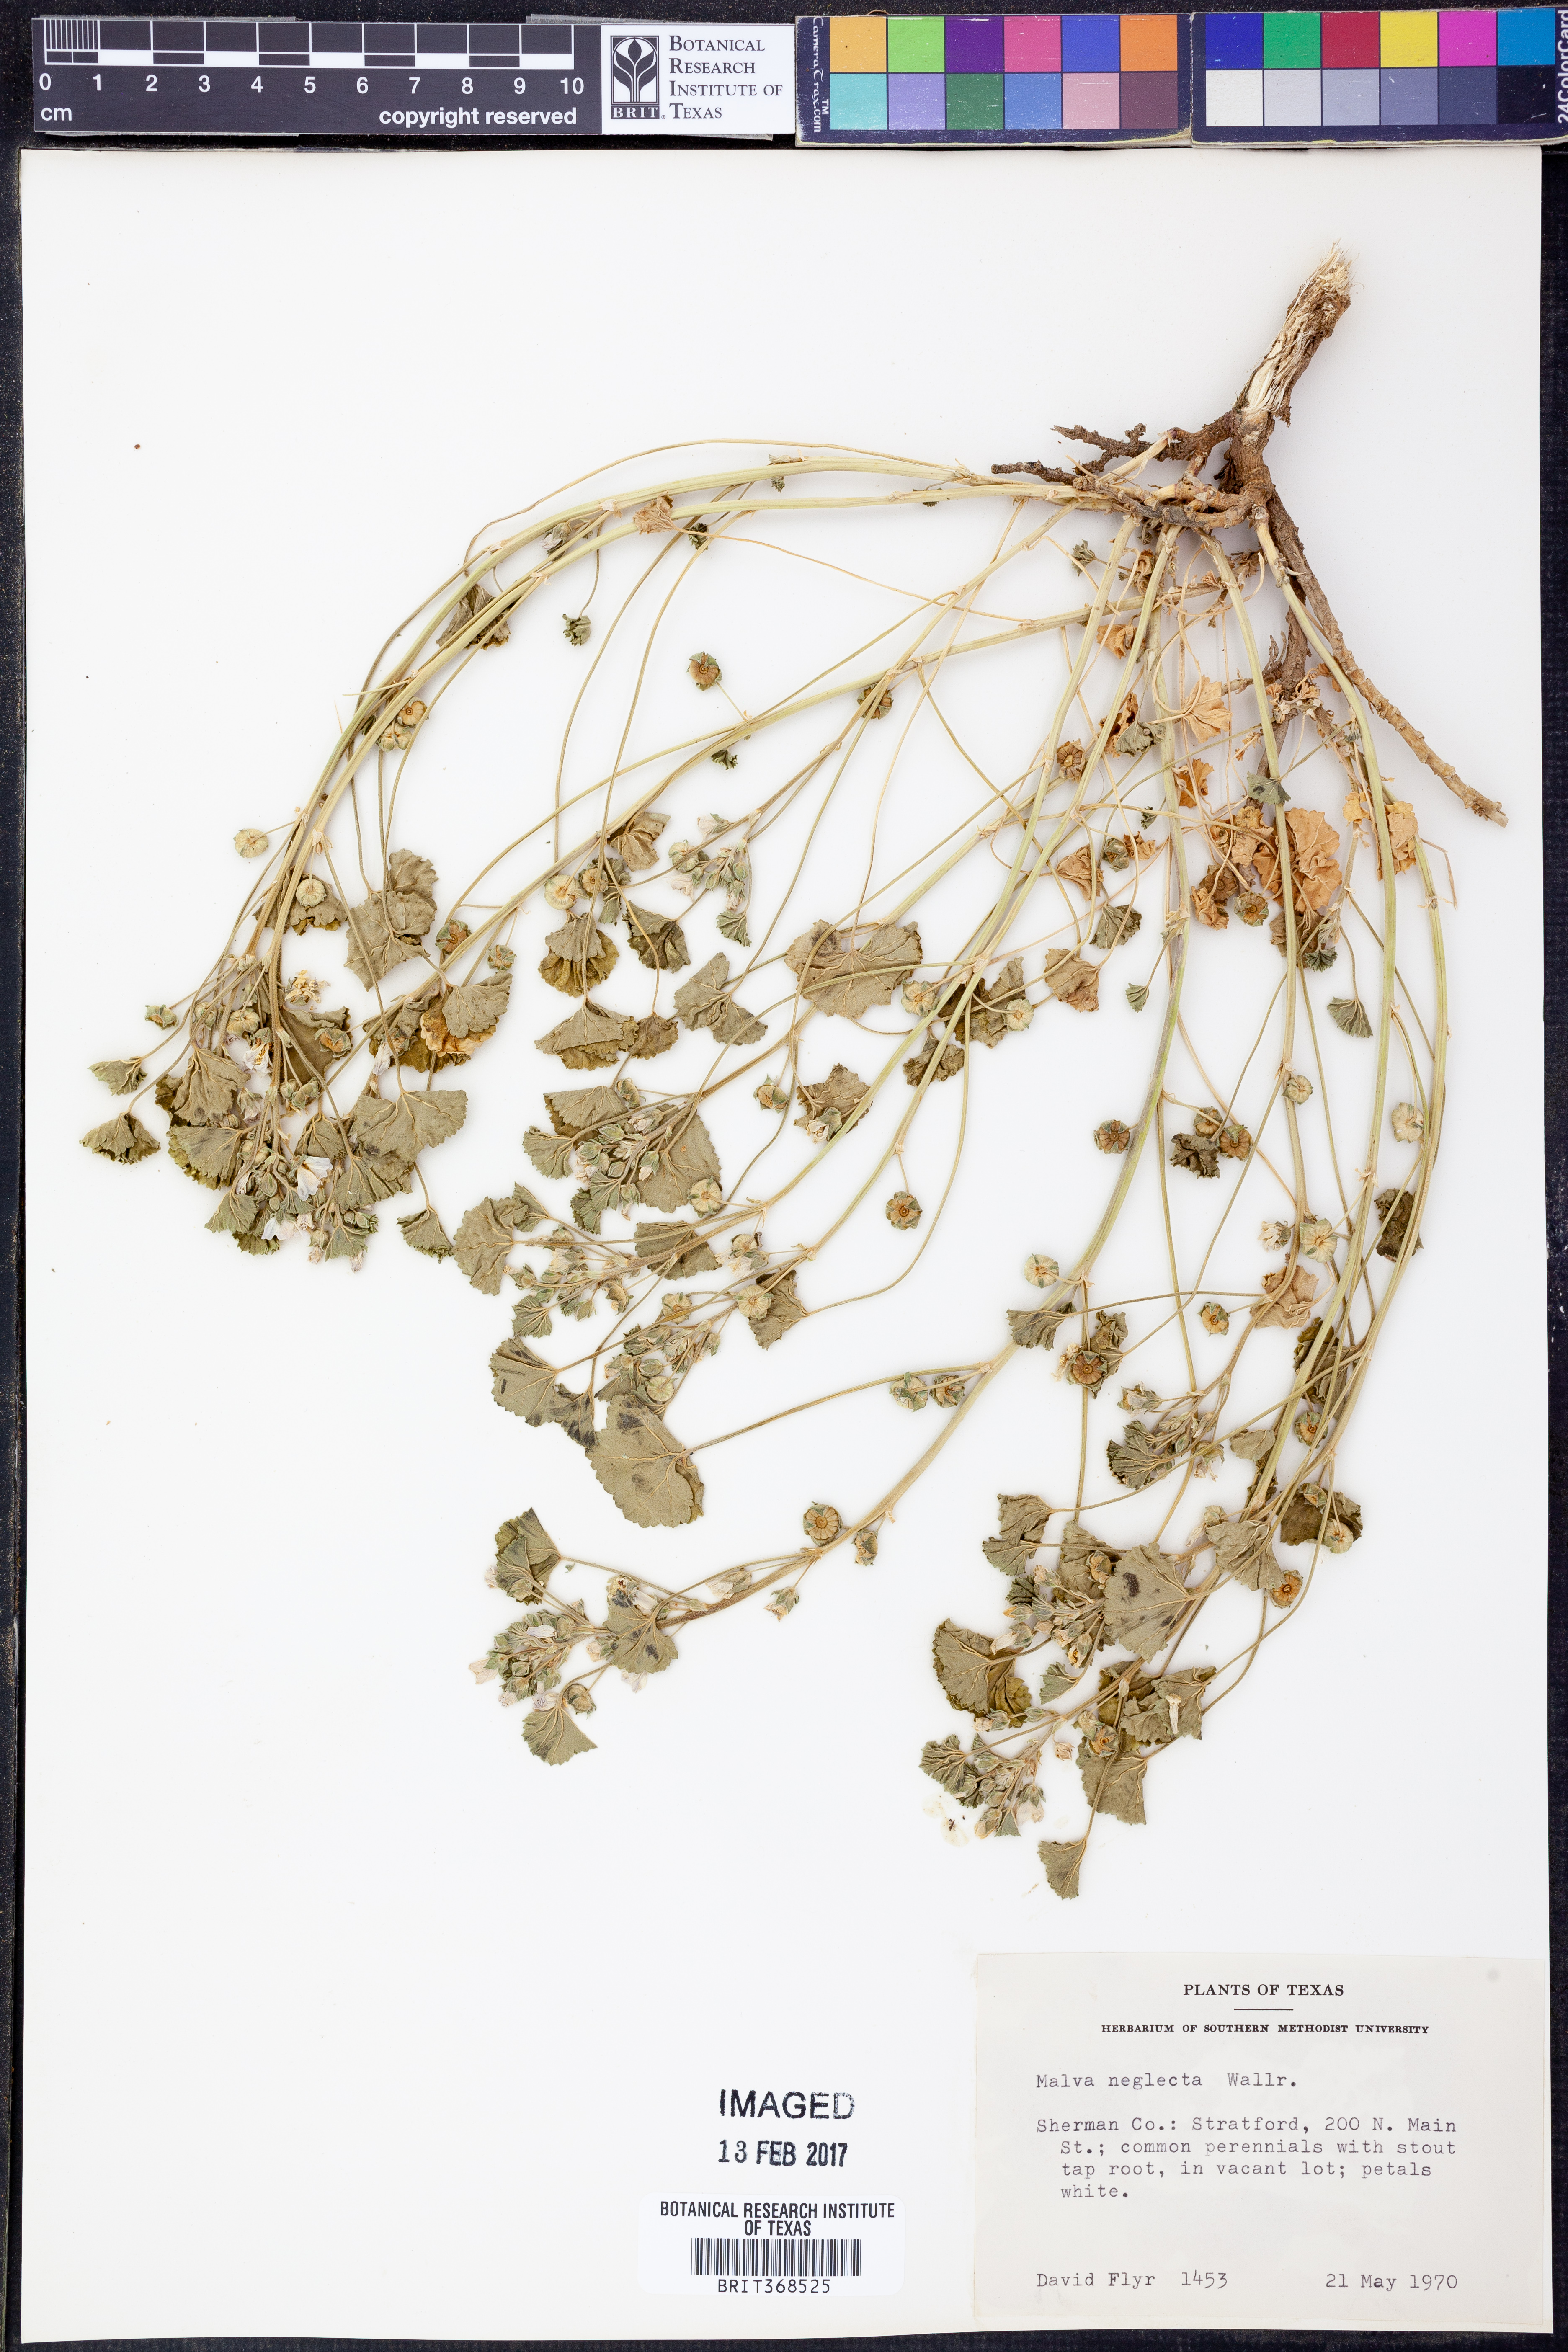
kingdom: Plantae
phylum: Tracheophyta
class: Magnoliopsida
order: Malvales
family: Malvaceae
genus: Malva
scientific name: Malva neglecta
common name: Common mallow
